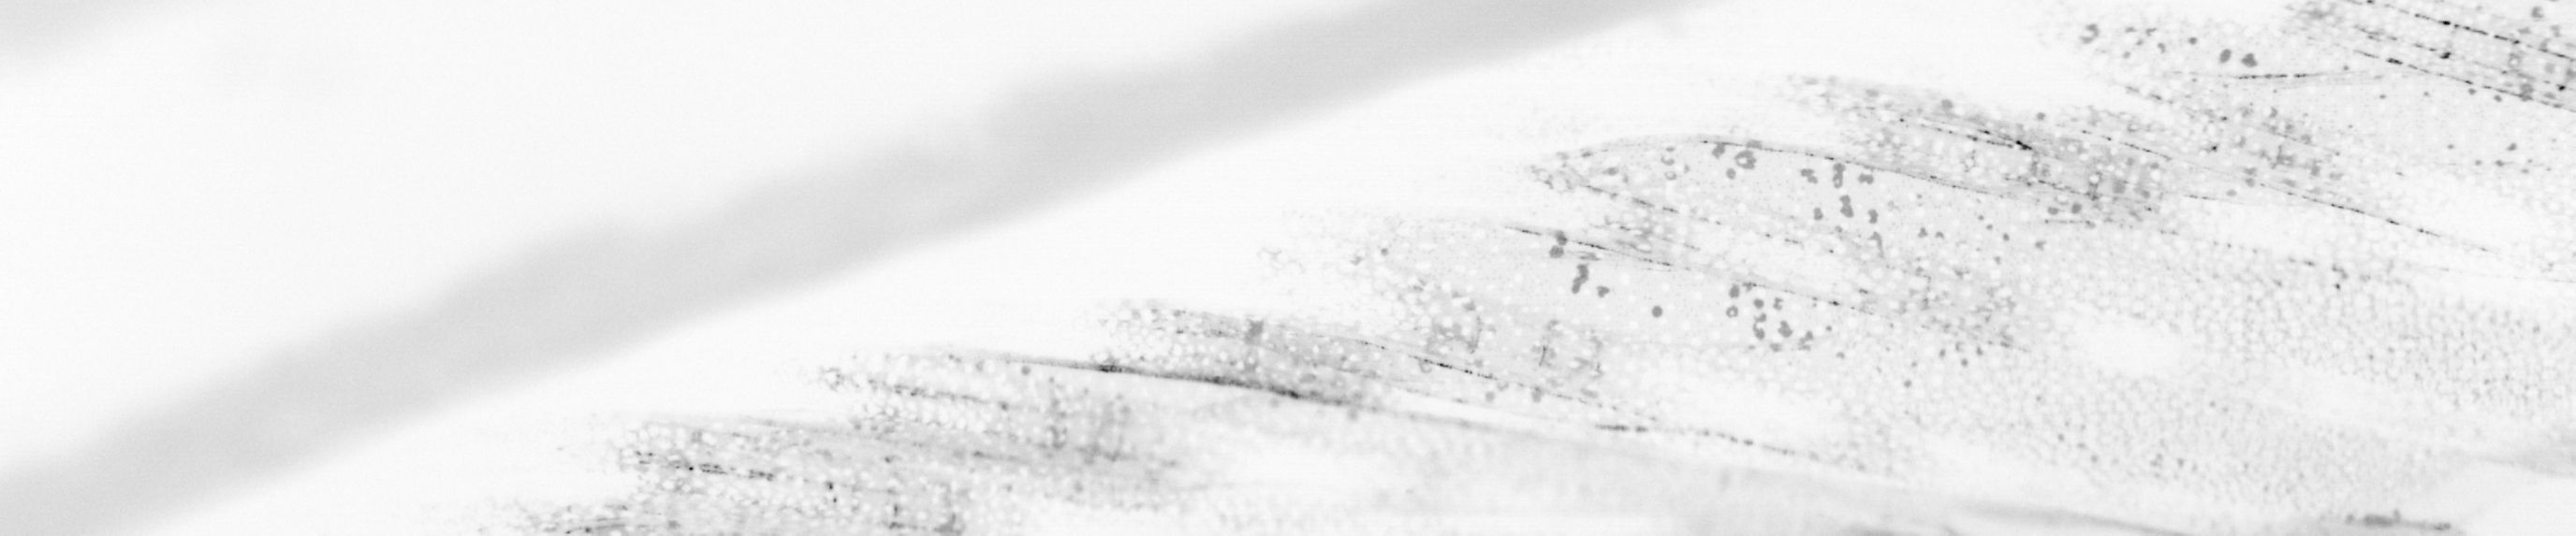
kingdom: Animalia
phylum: Chordata
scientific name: Chordata
